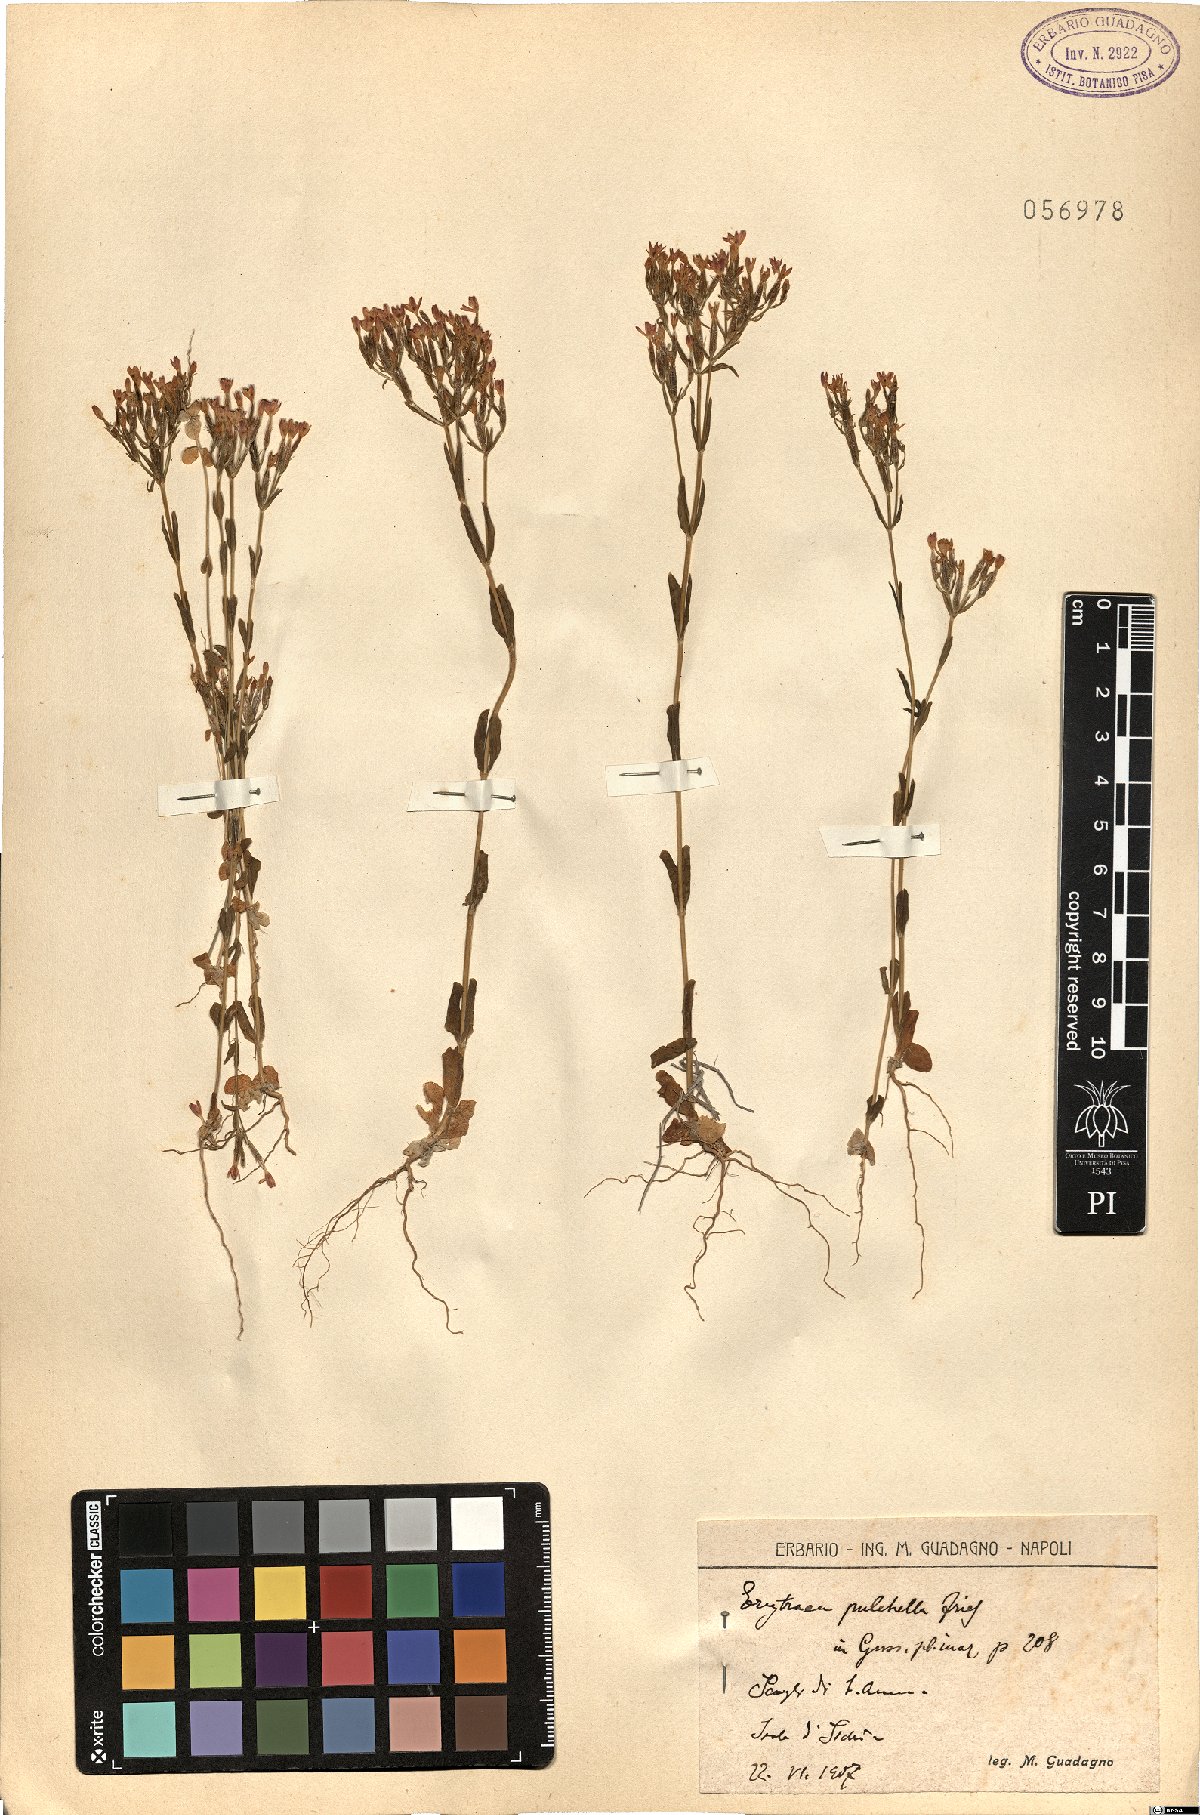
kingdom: Plantae
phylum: Tracheophyta
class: Magnoliopsida
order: Gentianales
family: Gentianaceae
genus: Centaurium
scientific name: Centaurium pulchellum
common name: Lesser centaury
